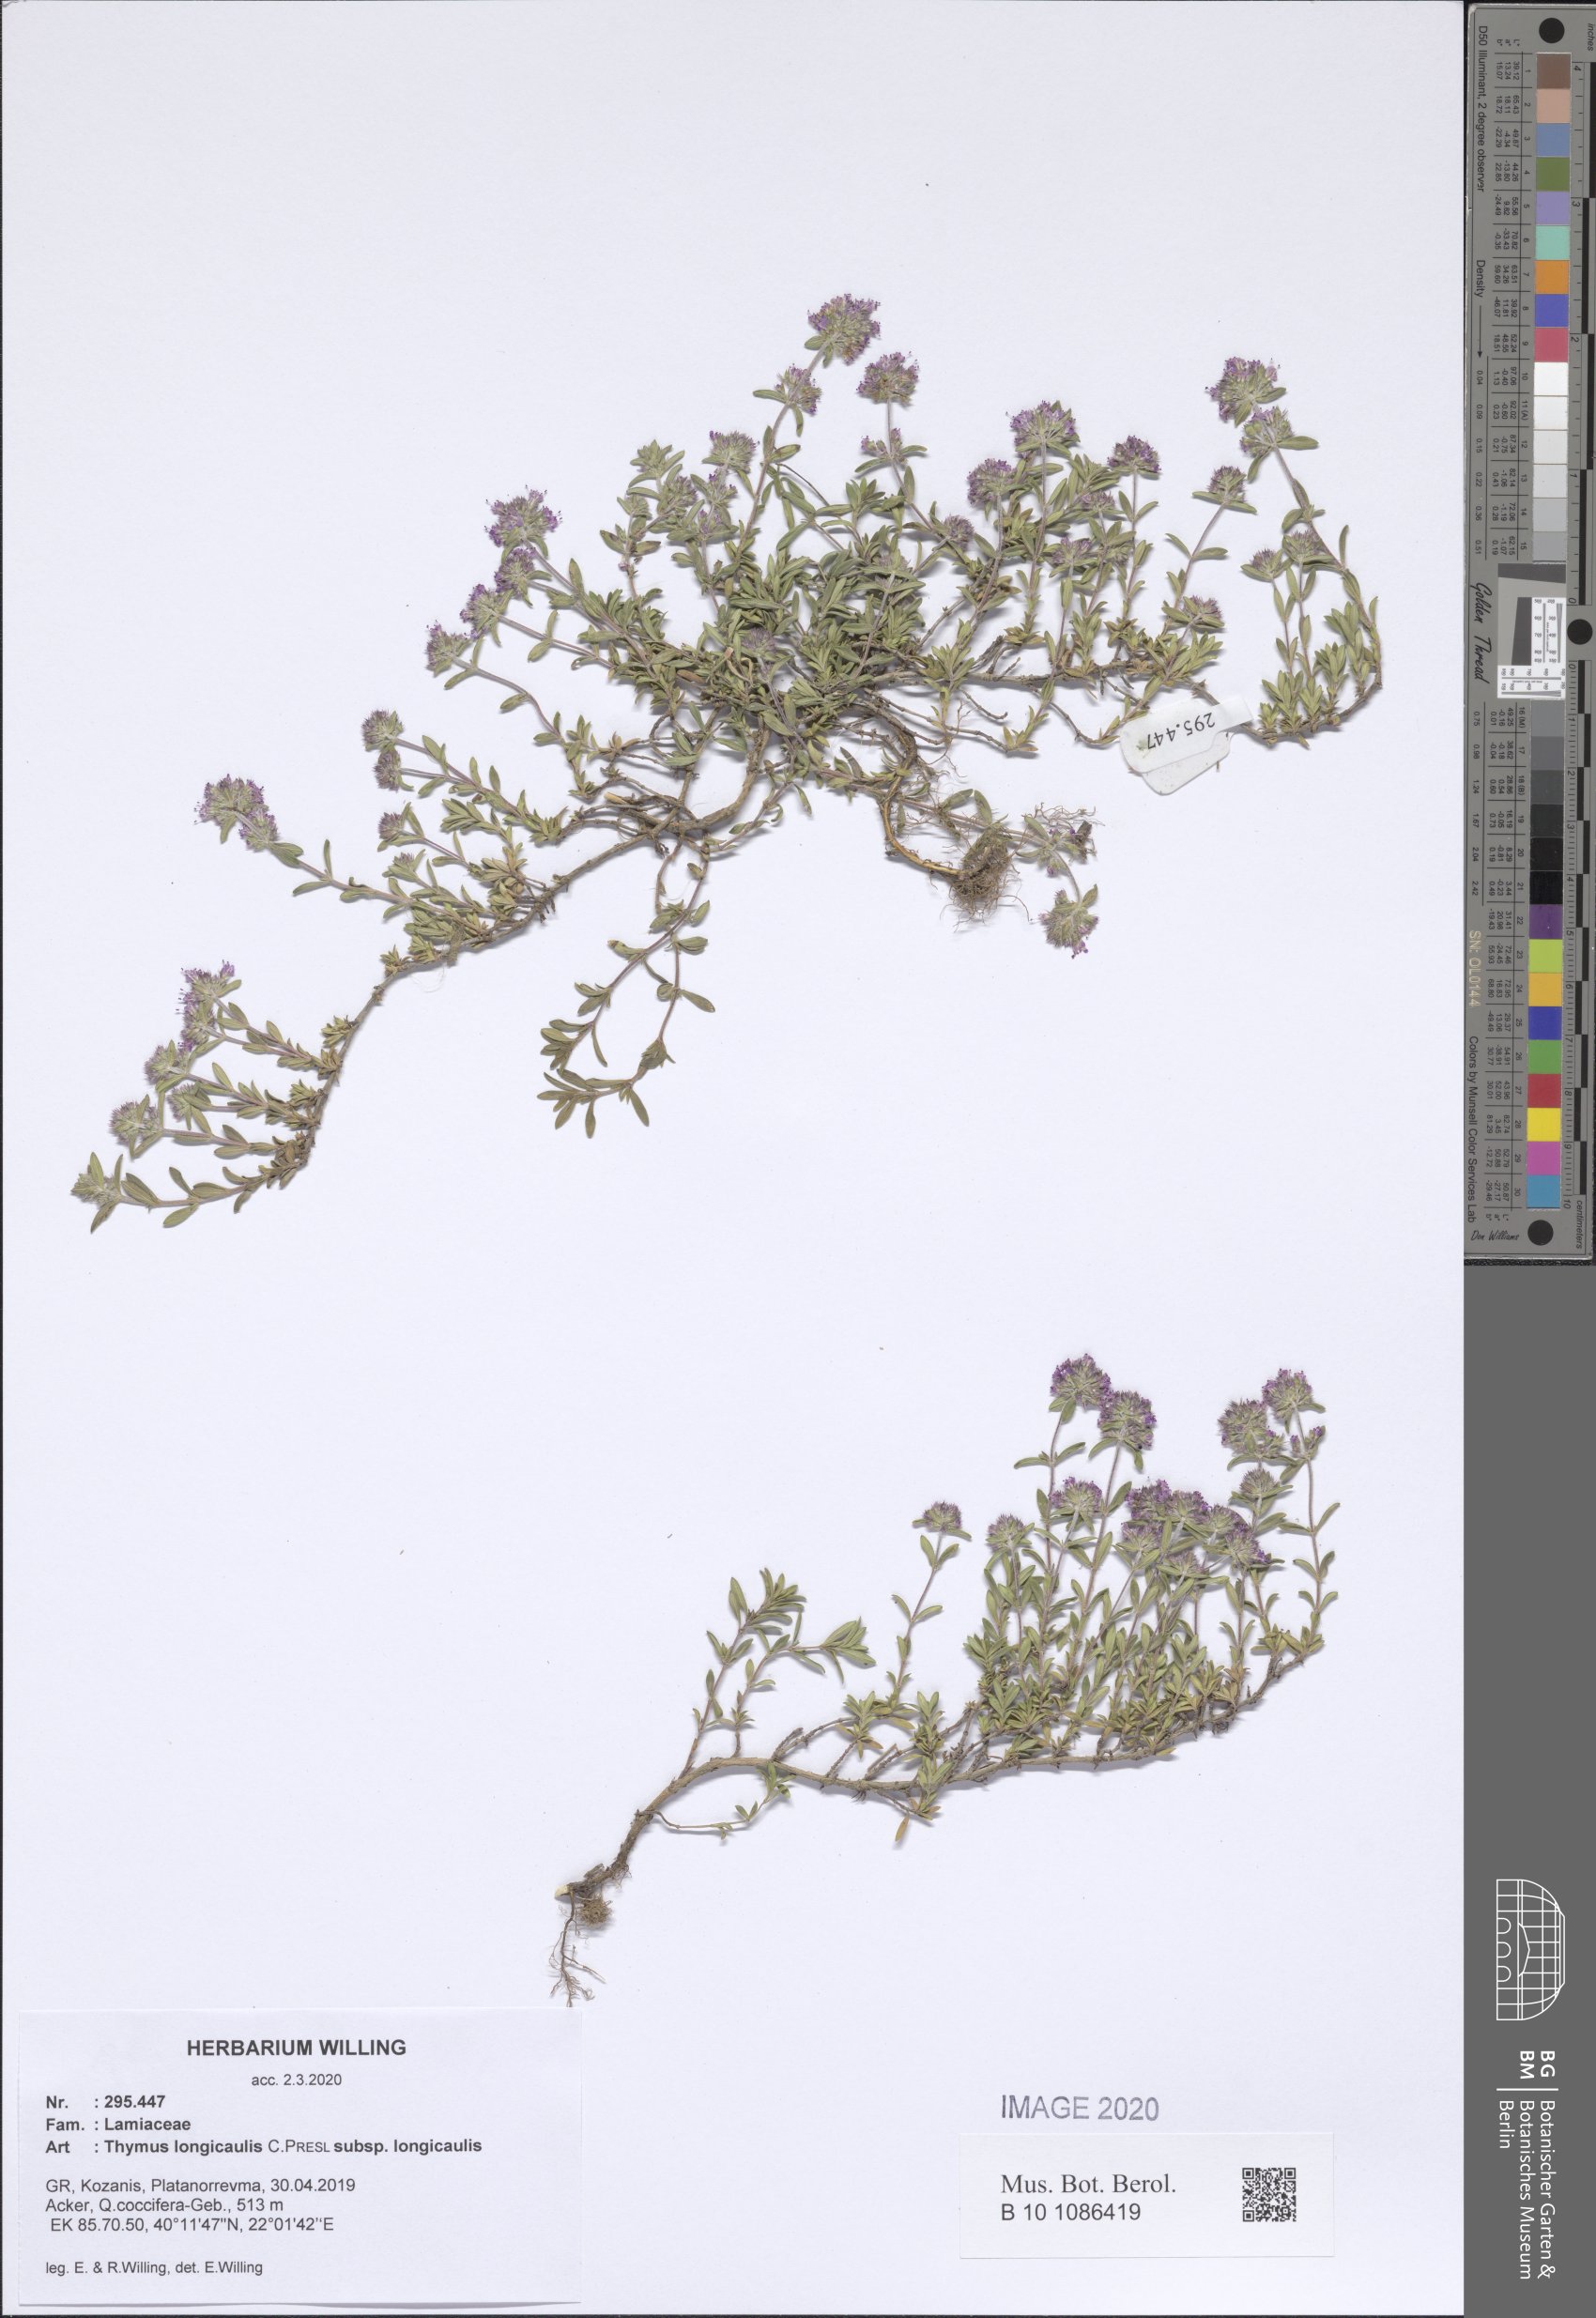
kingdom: Plantae
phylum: Tracheophyta
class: Magnoliopsida
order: Lamiales
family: Lamiaceae
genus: Thymus
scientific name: Thymus longicaulis
